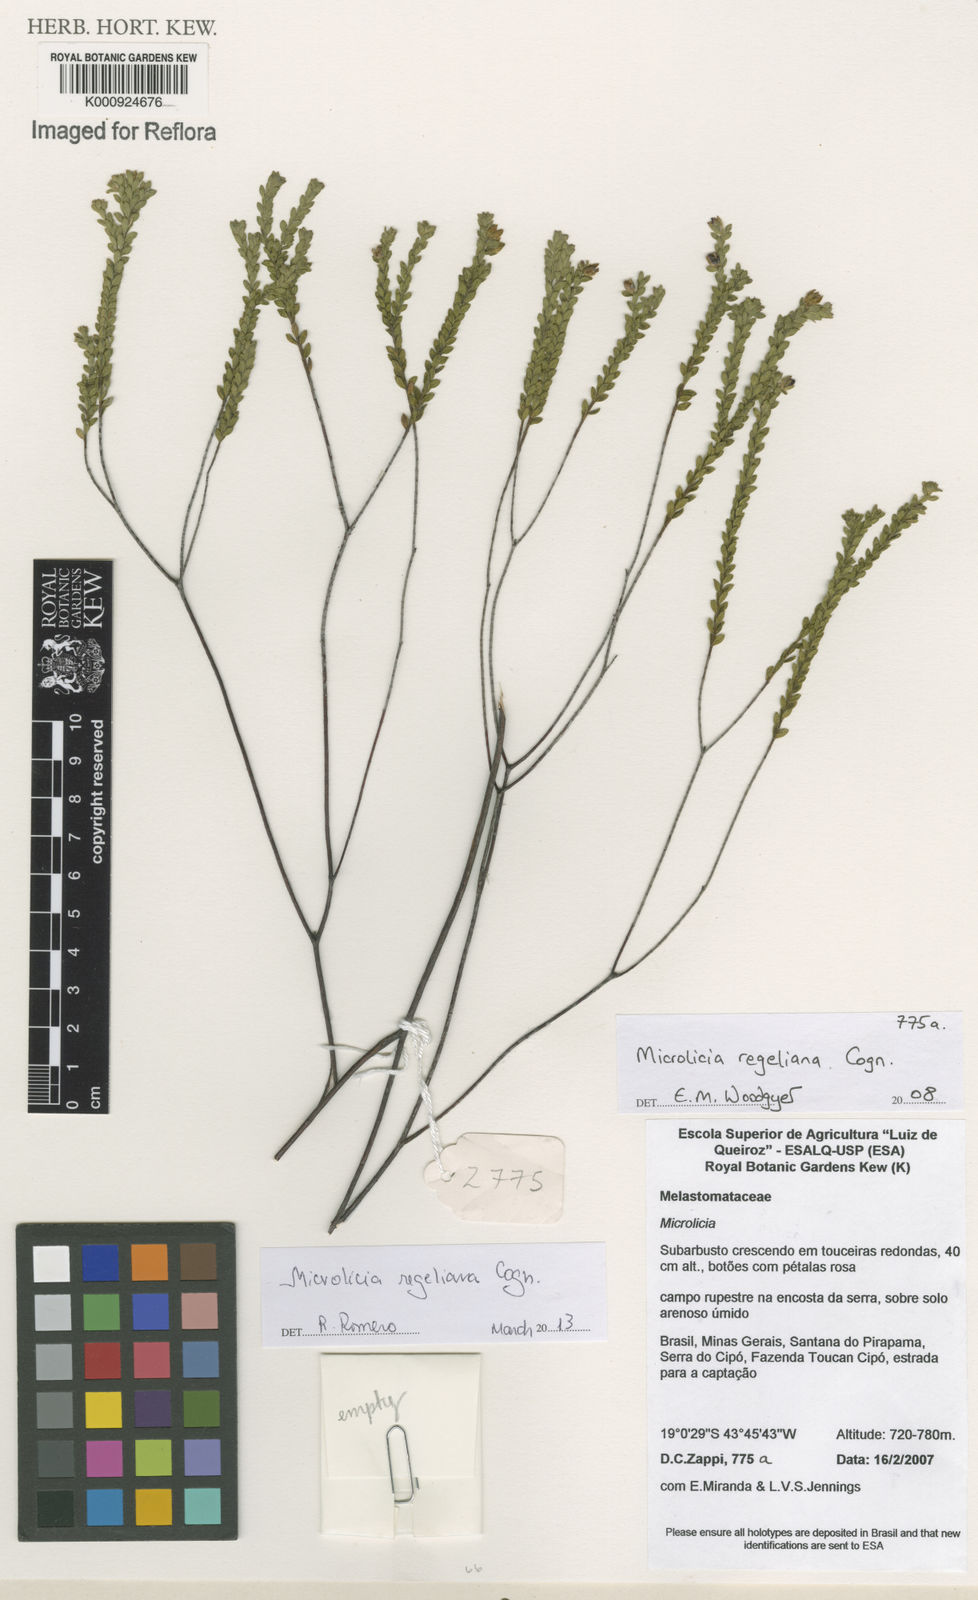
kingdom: Plantae
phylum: Tracheophyta
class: Magnoliopsida
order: Myrtales
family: Melastomataceae
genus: Microlicia
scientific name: Microlicia regeliana
